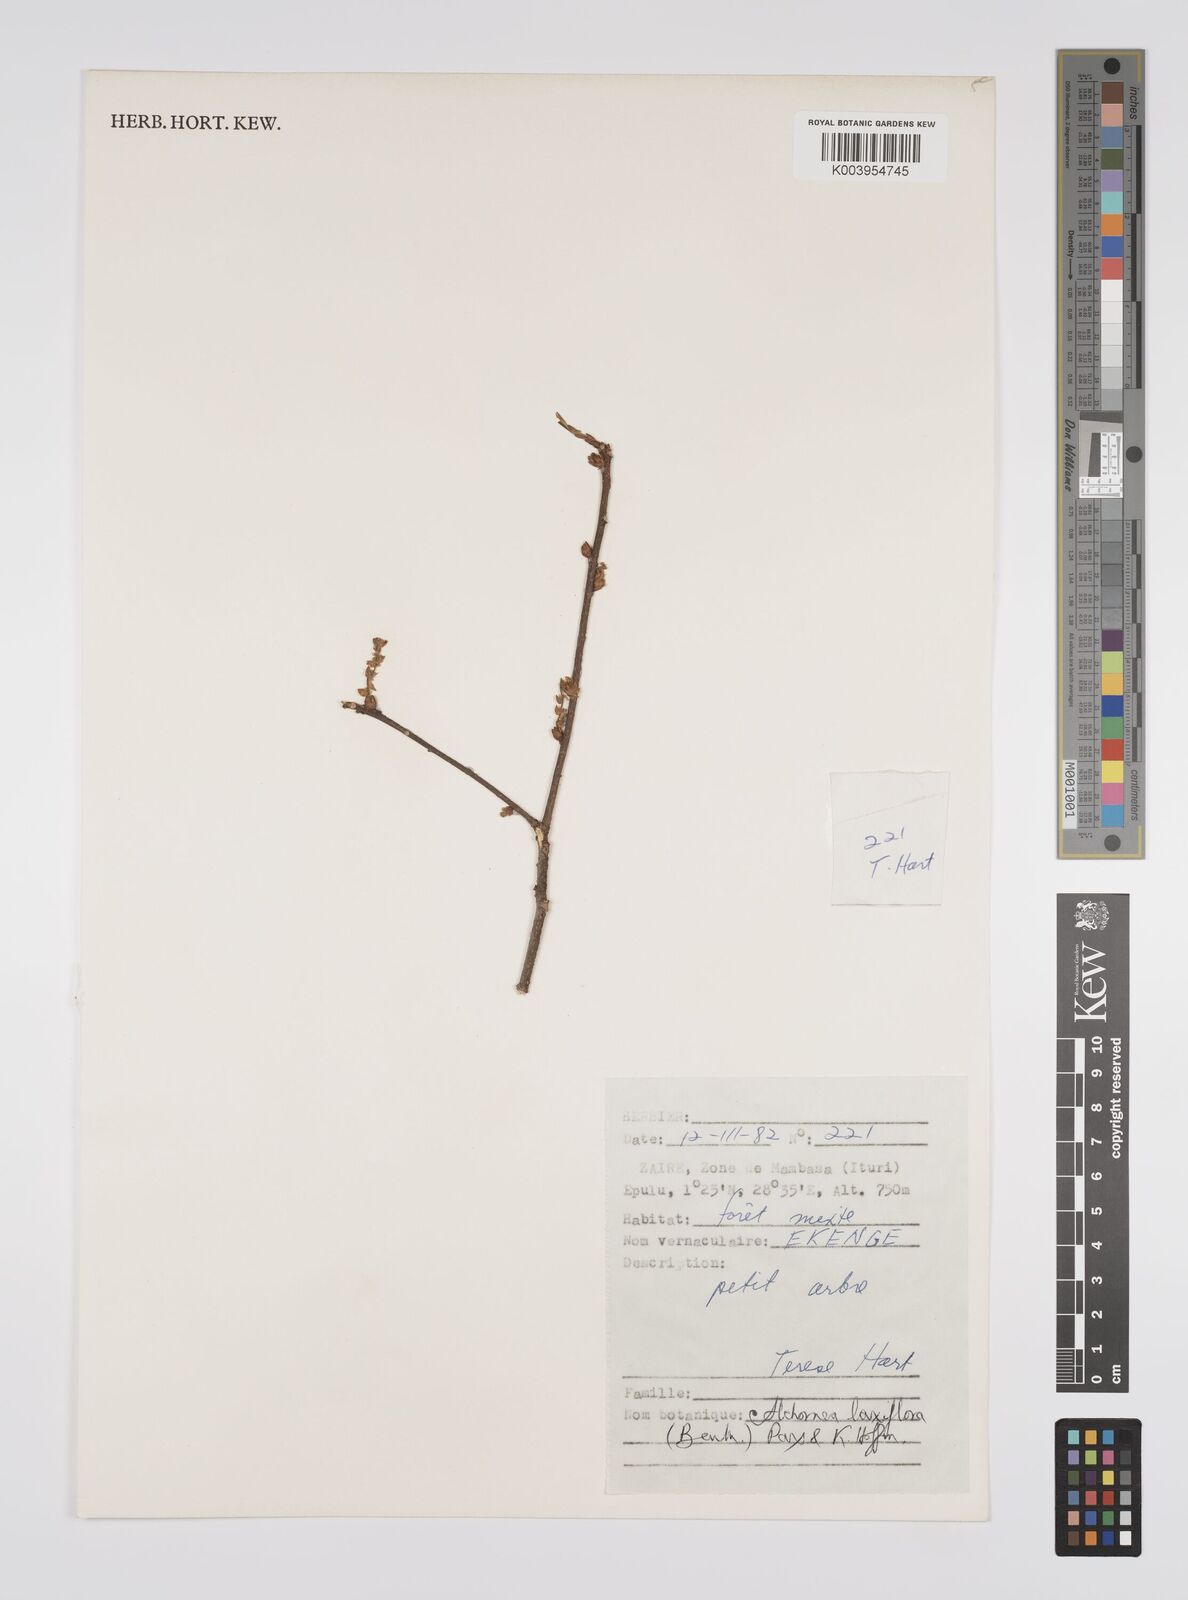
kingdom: Plantae
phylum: Tracheophyta
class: Magnoliopsida
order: Malpighiales
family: Euphorbiaceae
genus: Alchornea
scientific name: Alchornea laxiflora
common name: Lowveld bead-string
